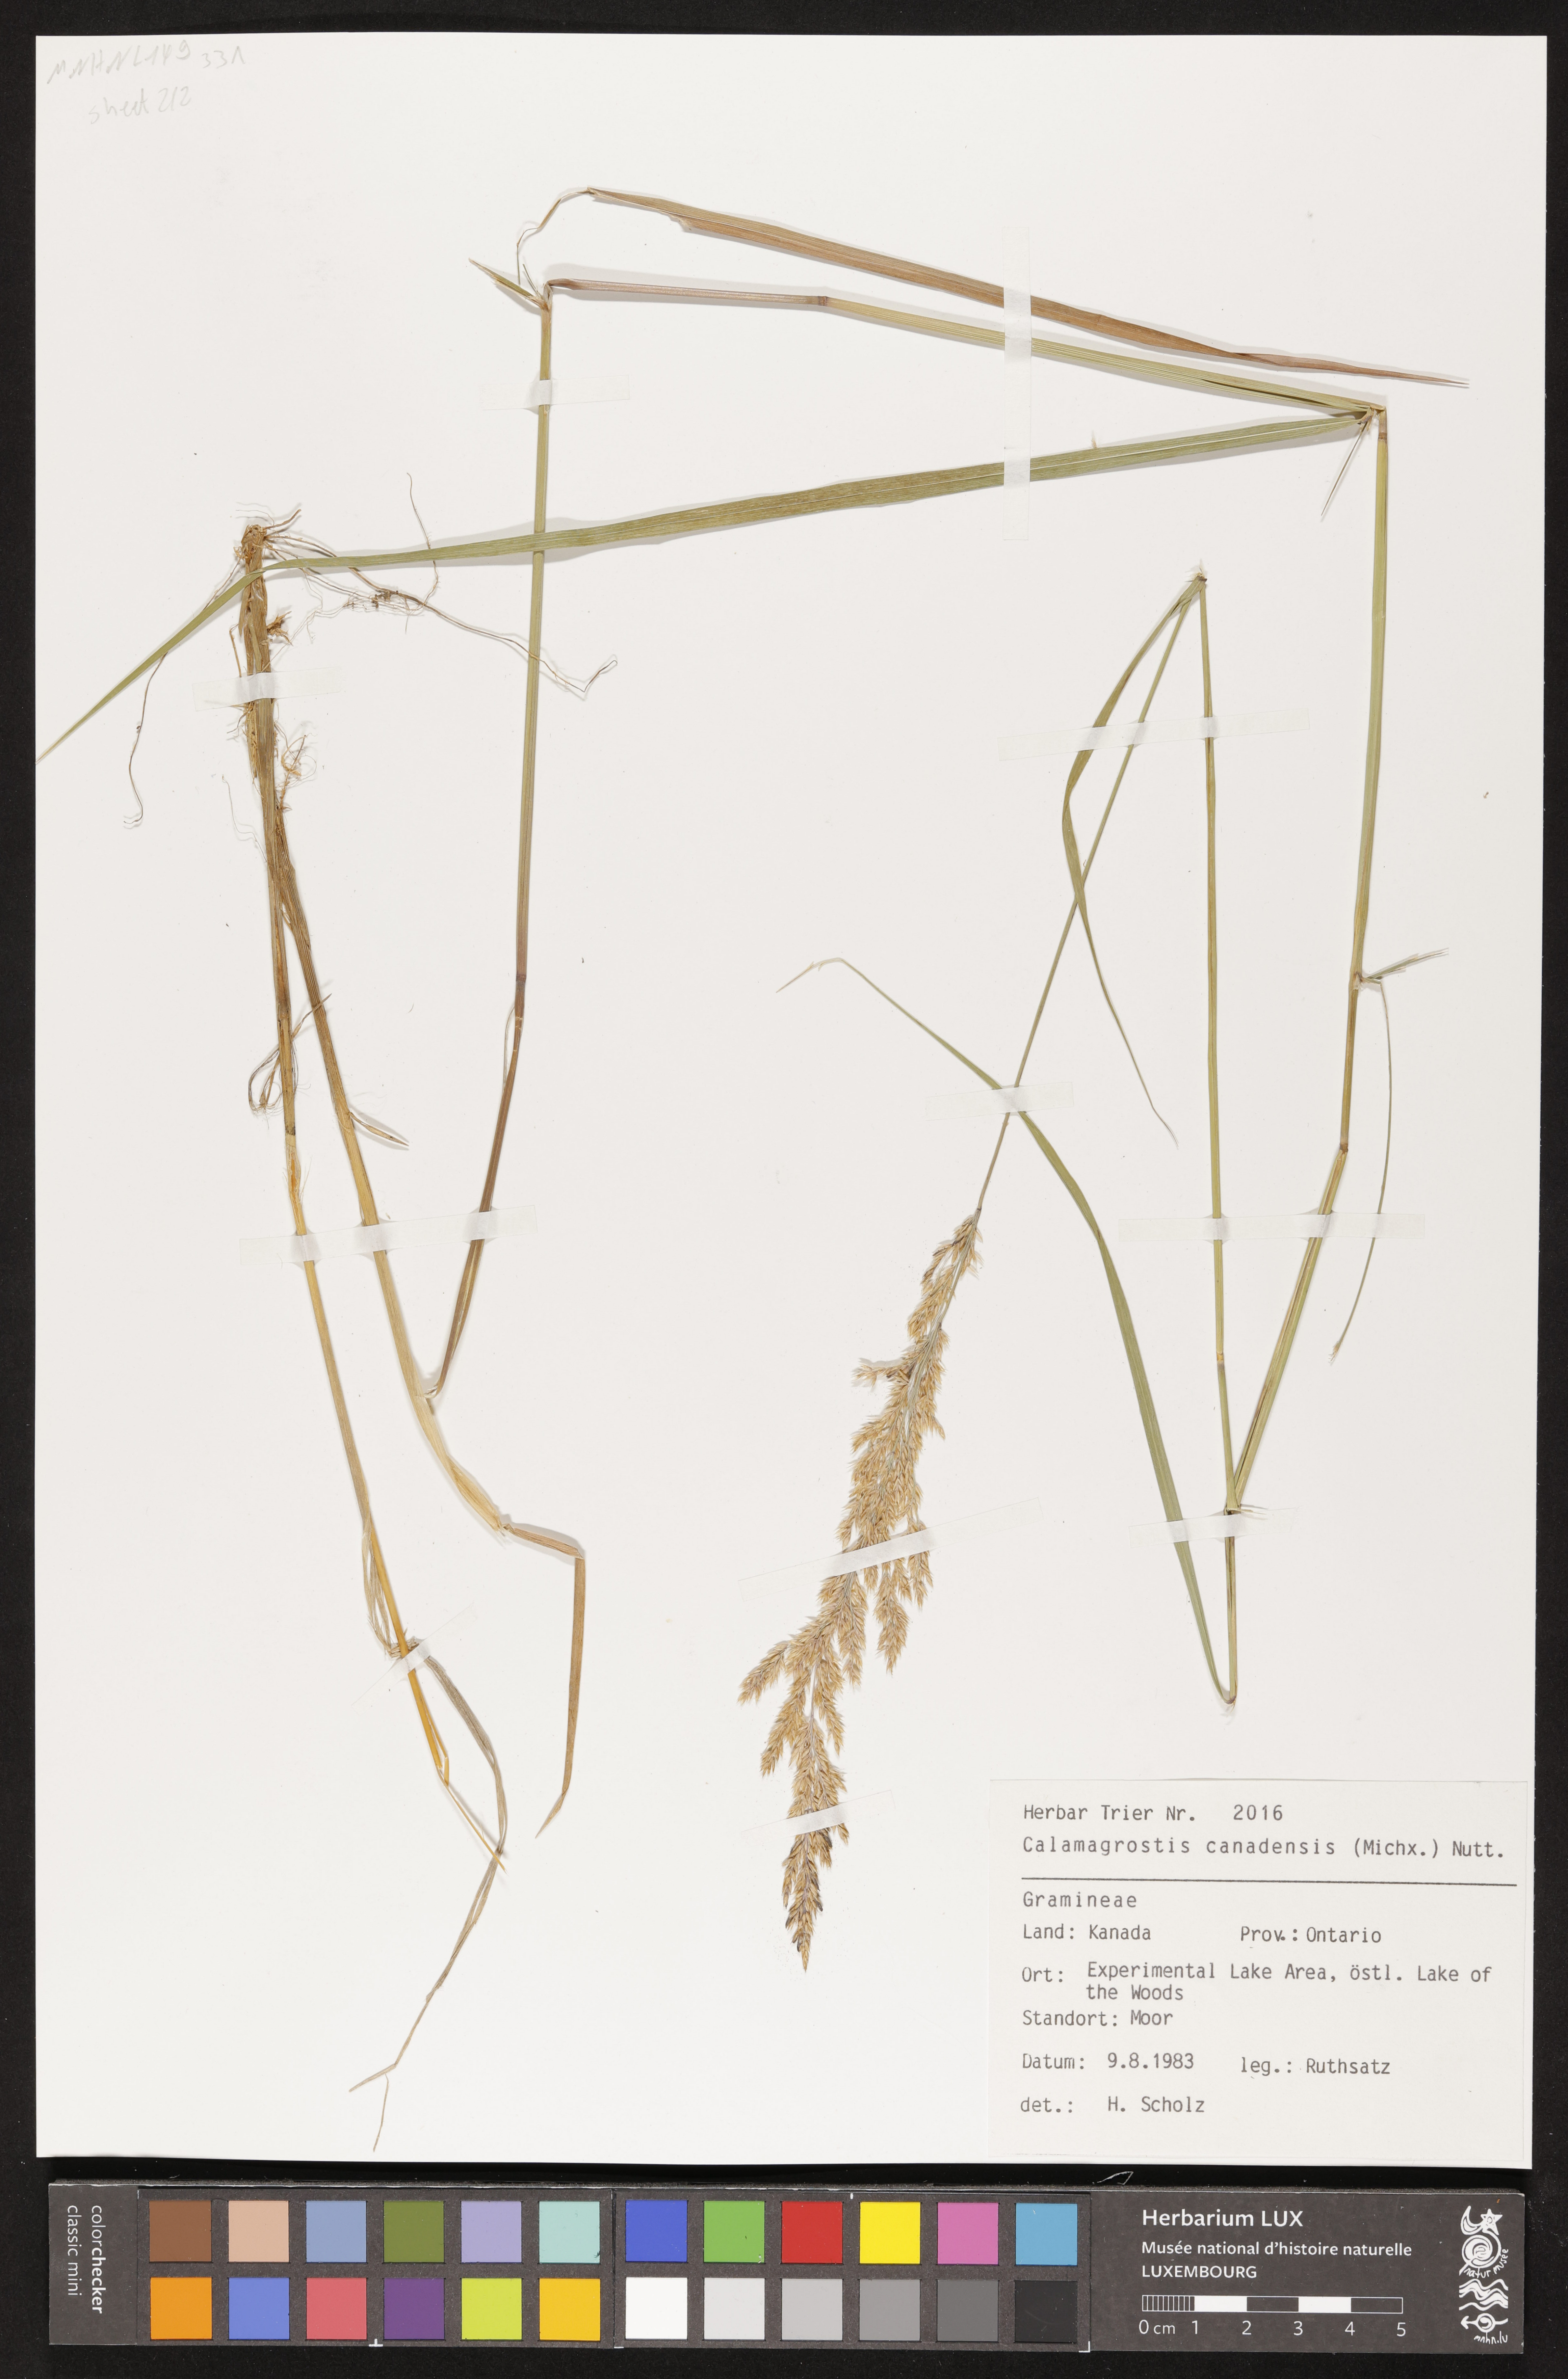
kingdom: Plantae
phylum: Tracheophyta
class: Liliopsida
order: Poales
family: Poaceae
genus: Calamagrostis
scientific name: Calamagrostis canadensis
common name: Canada bluejoint
